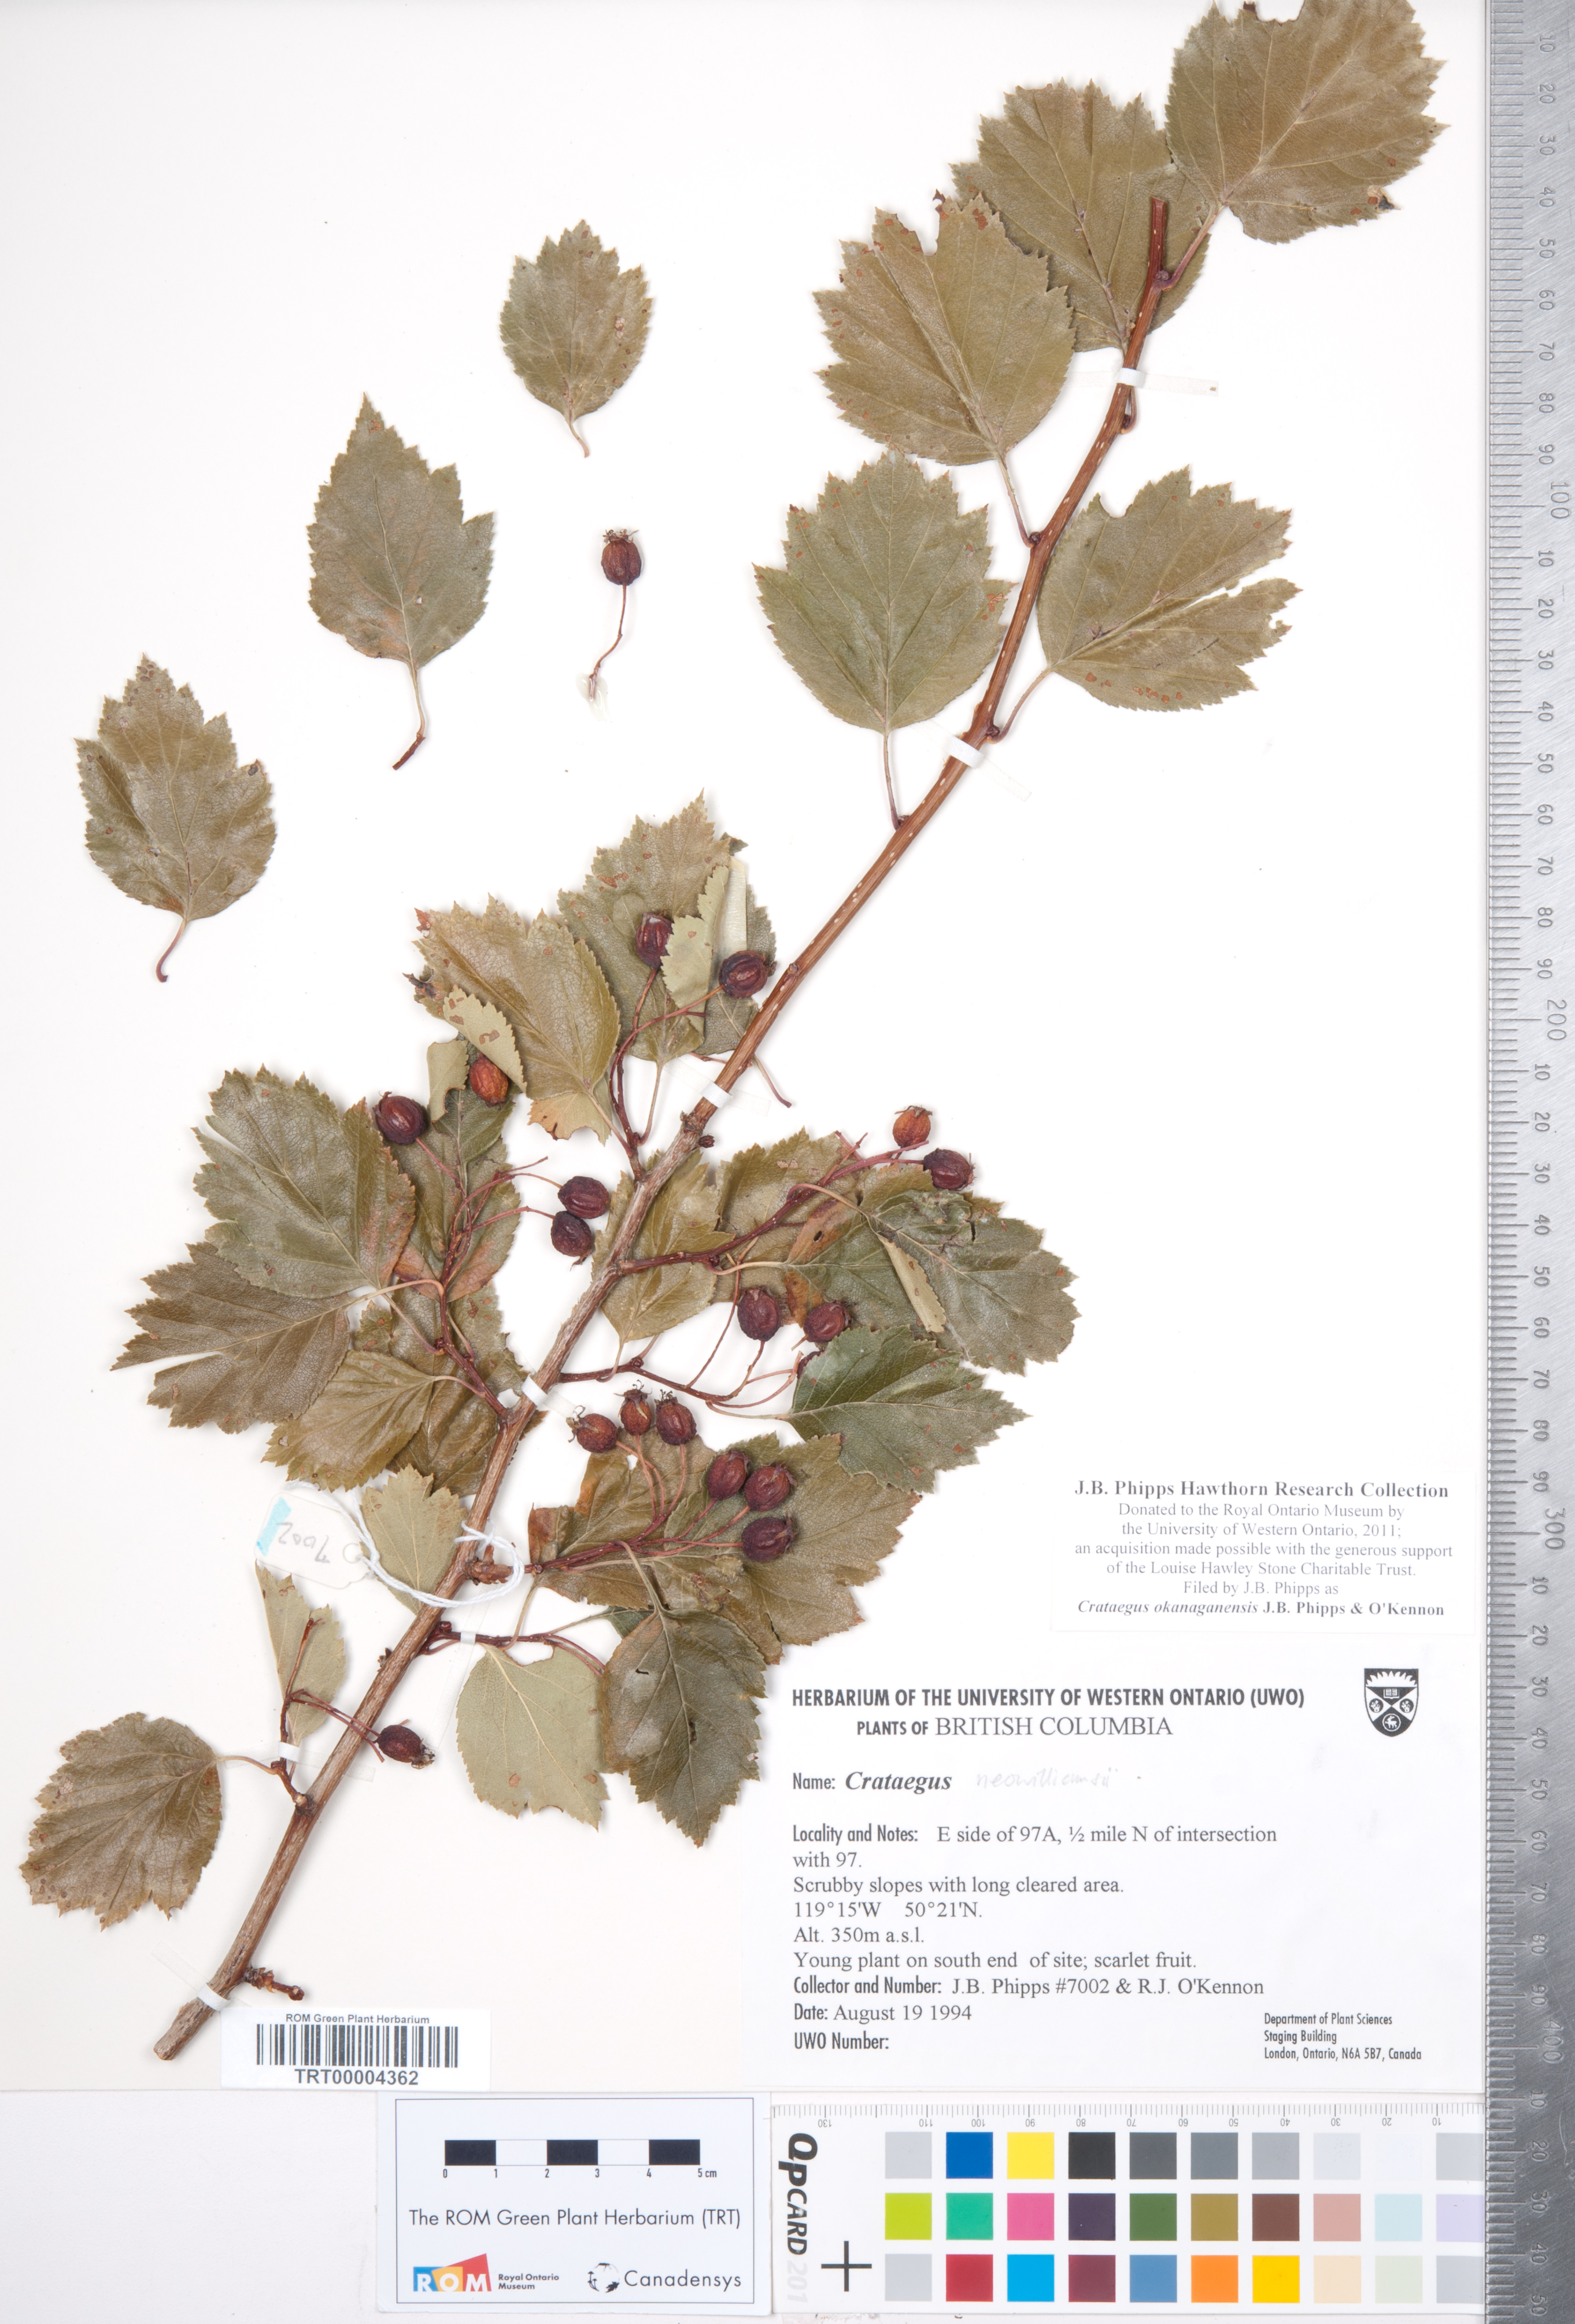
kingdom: Plantae
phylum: Tracheophyta
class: Magnoliopsida
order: Rosales
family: Rosaceae
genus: Crataegus
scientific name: Crataegus okanaganensis
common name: Okanagan valley hawthorn
